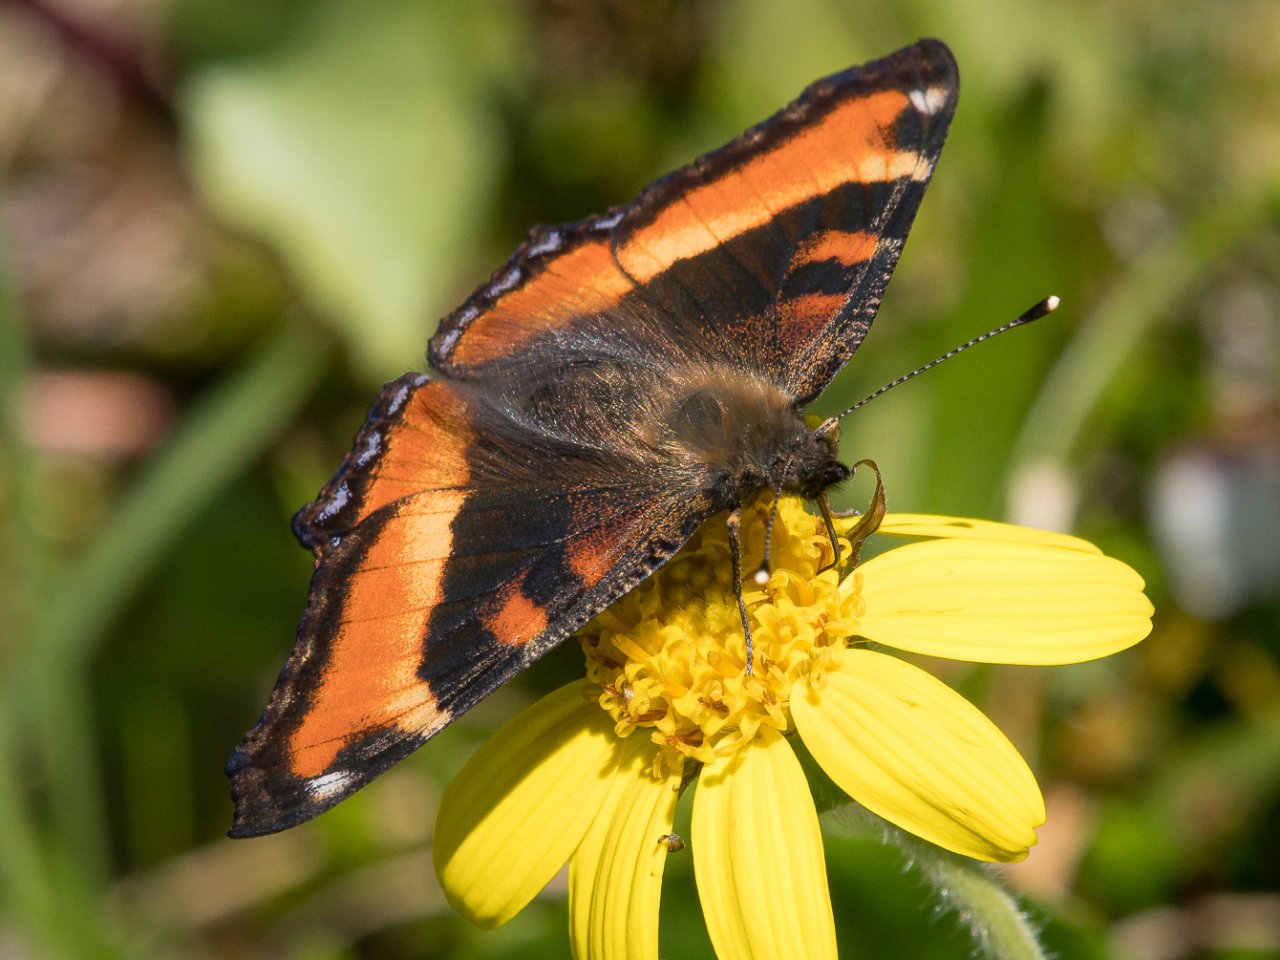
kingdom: Animalia
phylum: Arthropoda
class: Insecta
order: Lepidoptera
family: Nymphalidae
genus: Aglais
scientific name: Aglais milberti
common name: Milbert's Tortoiseshell
